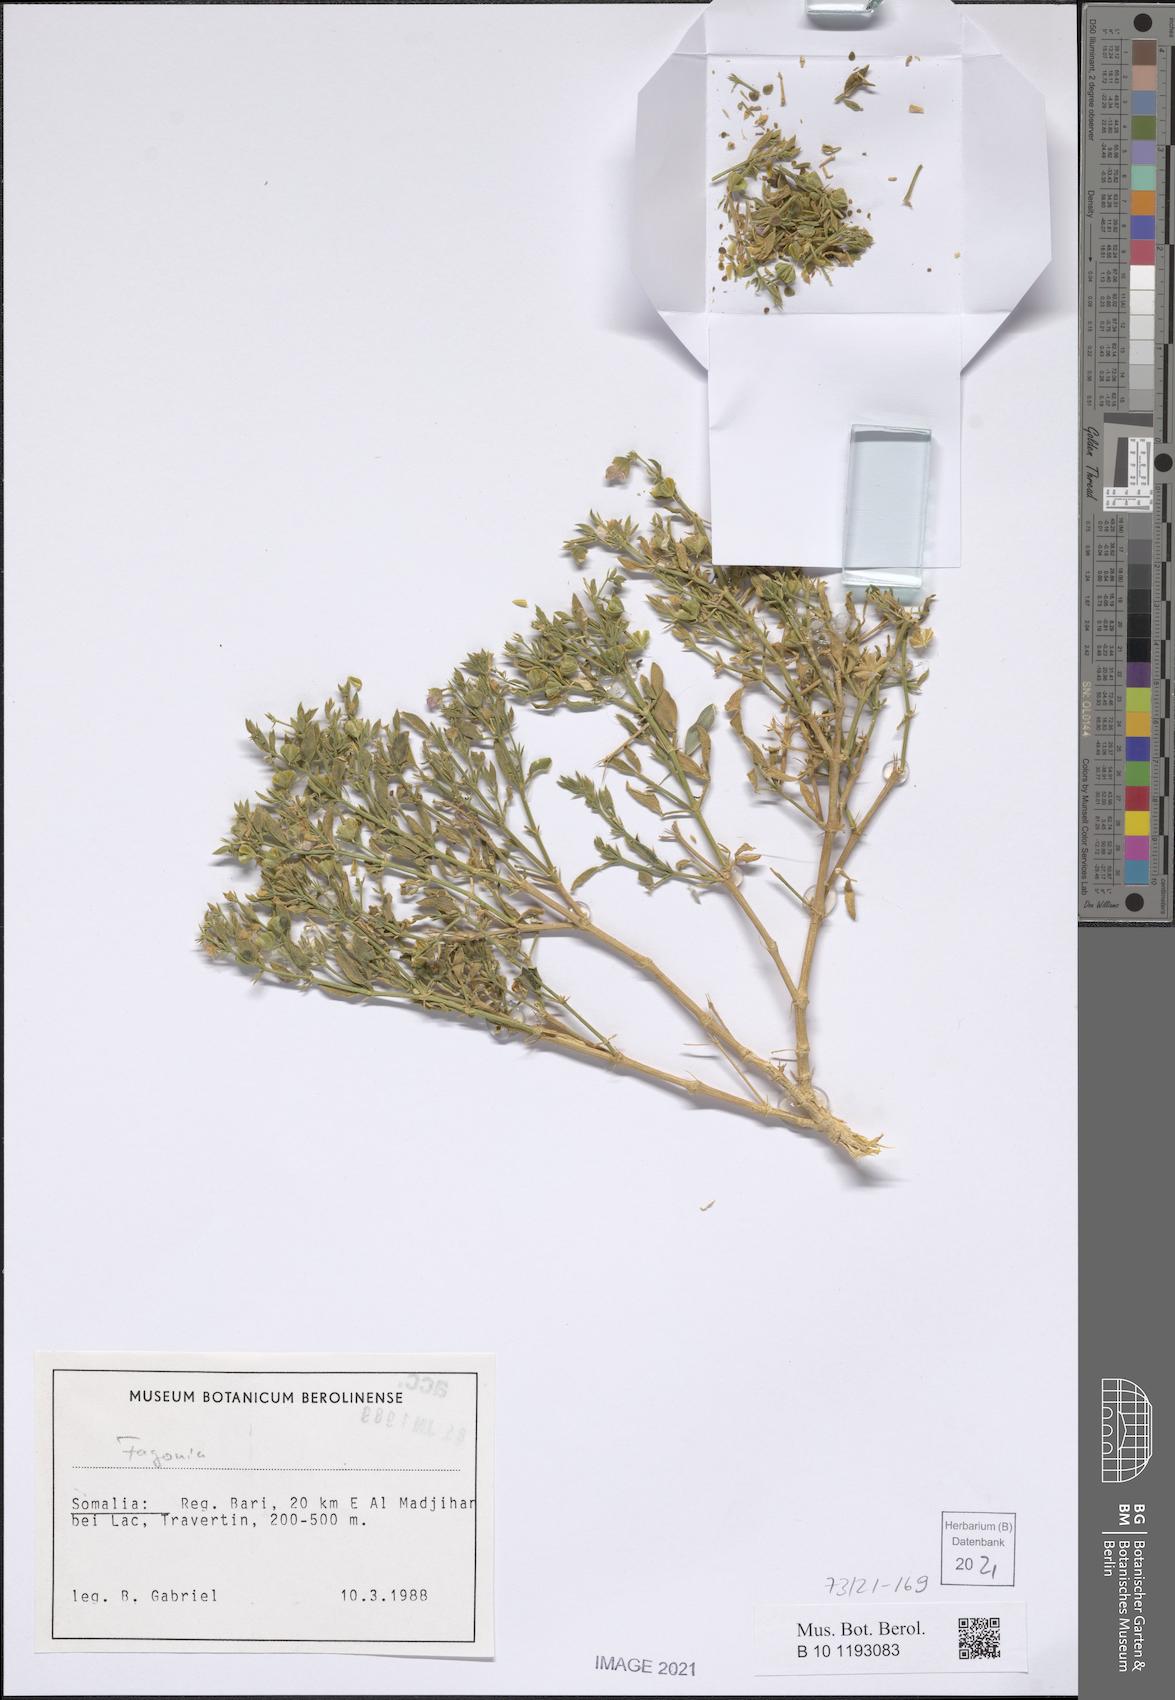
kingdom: Plantae
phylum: Tracheophyta
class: Magnoliopsida
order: Zygophyllales
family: Zygophyllaceae
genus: Fagonia
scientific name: Fagonia
